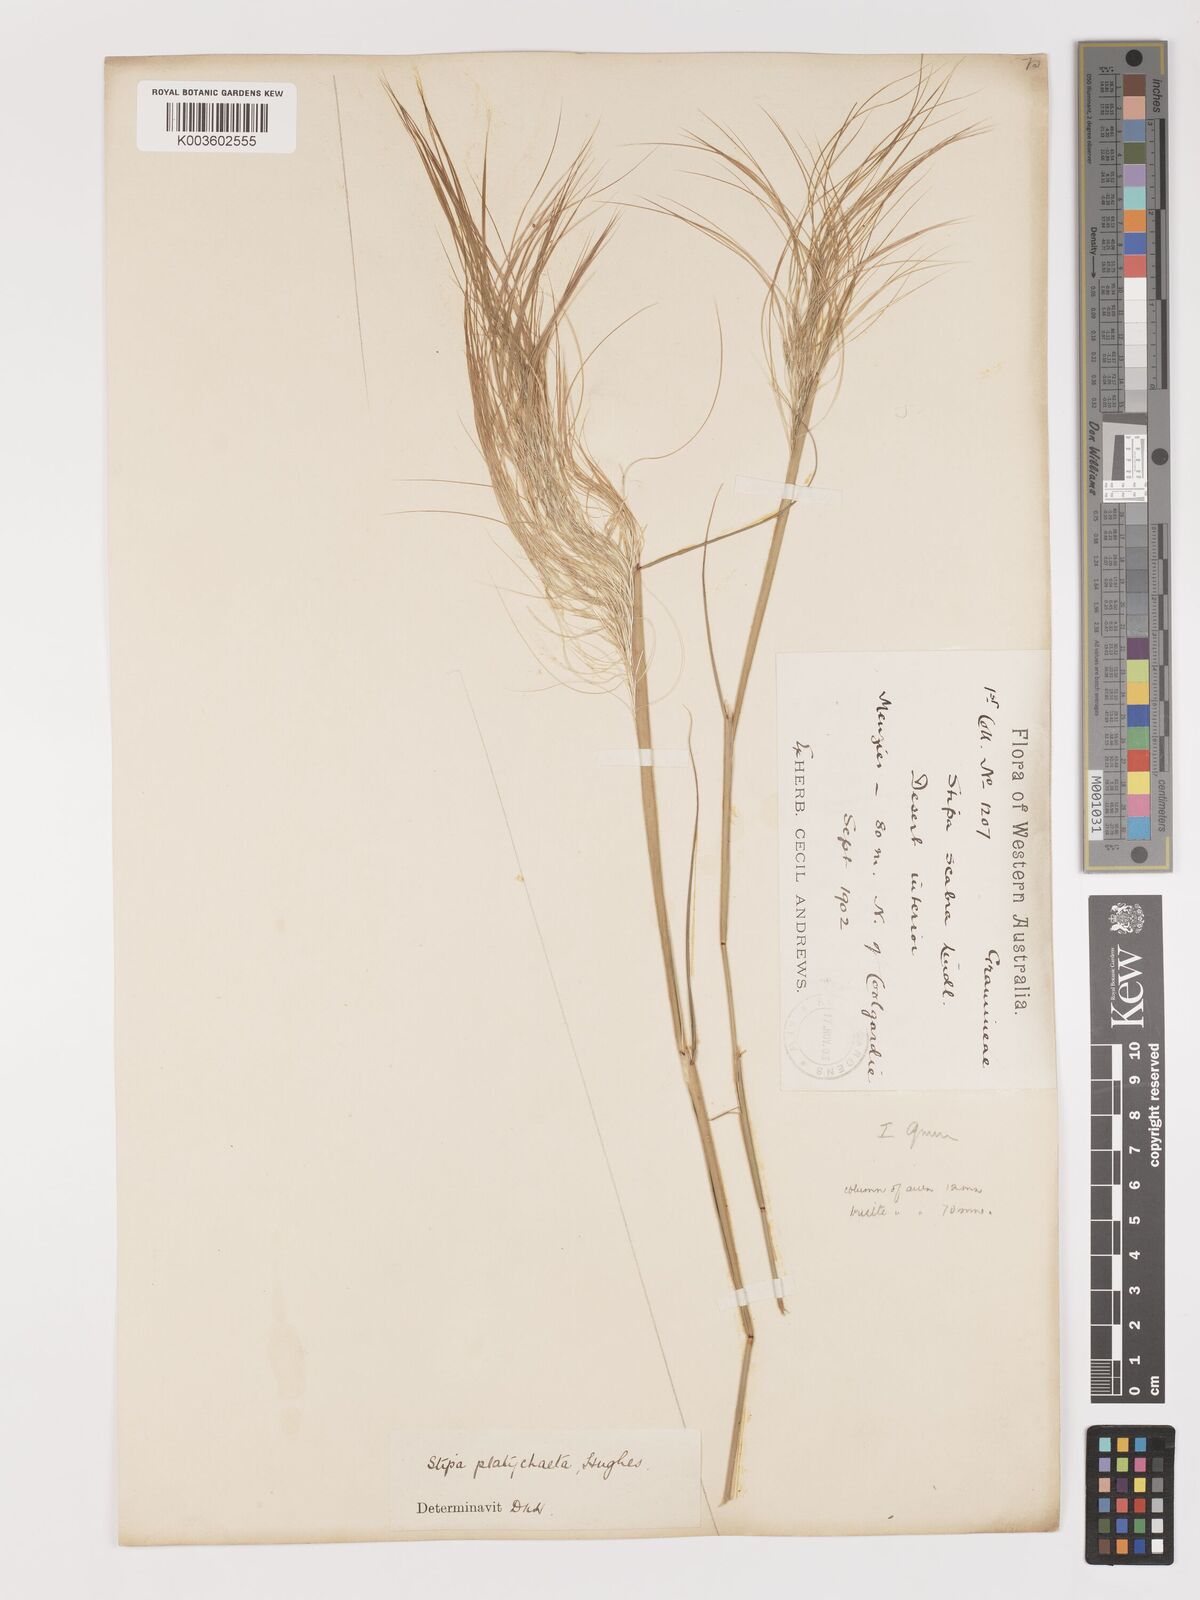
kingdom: Plantae
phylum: Tracheophyta
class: Liliopsida
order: Poales
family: Poaceae
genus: Austrostipa
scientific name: Austrostipa platychaeta
